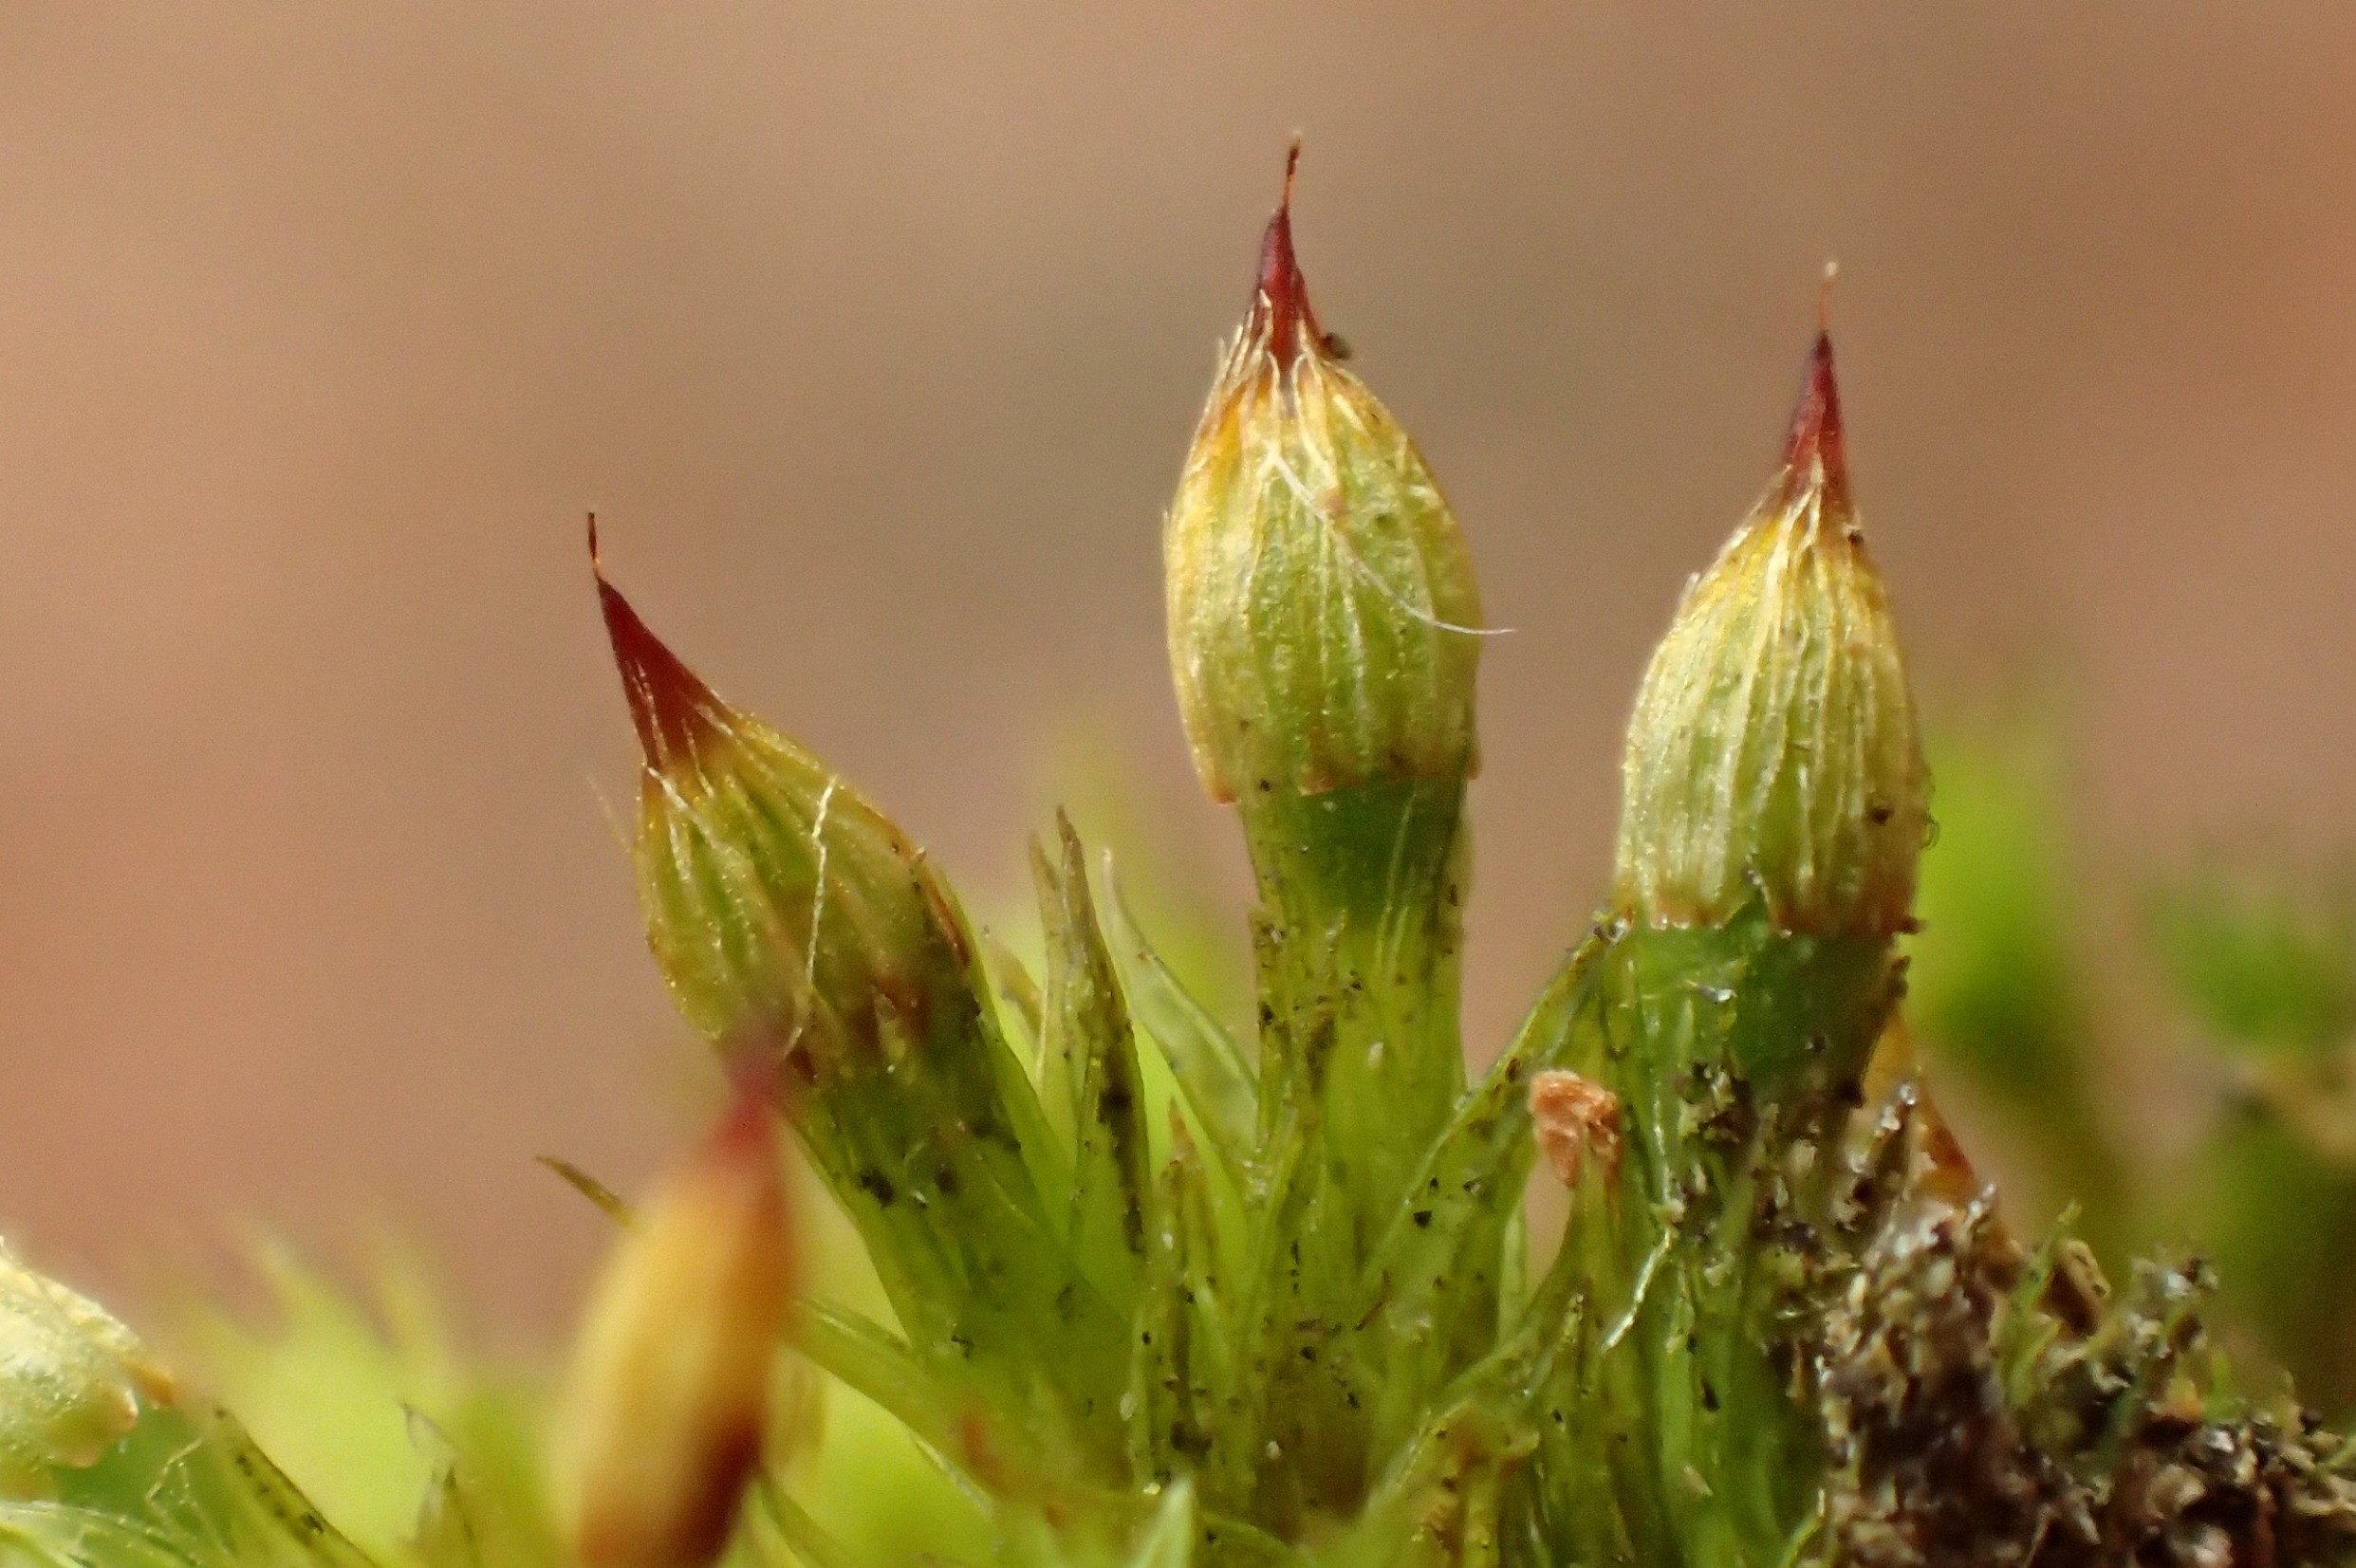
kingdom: Plantae
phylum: Bryophyta
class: Bryopsida
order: Orthotrichales
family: Orthotrichaceae
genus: Orthotrichum
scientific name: Orthotrichum stramineum
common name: Strågul furehætte
